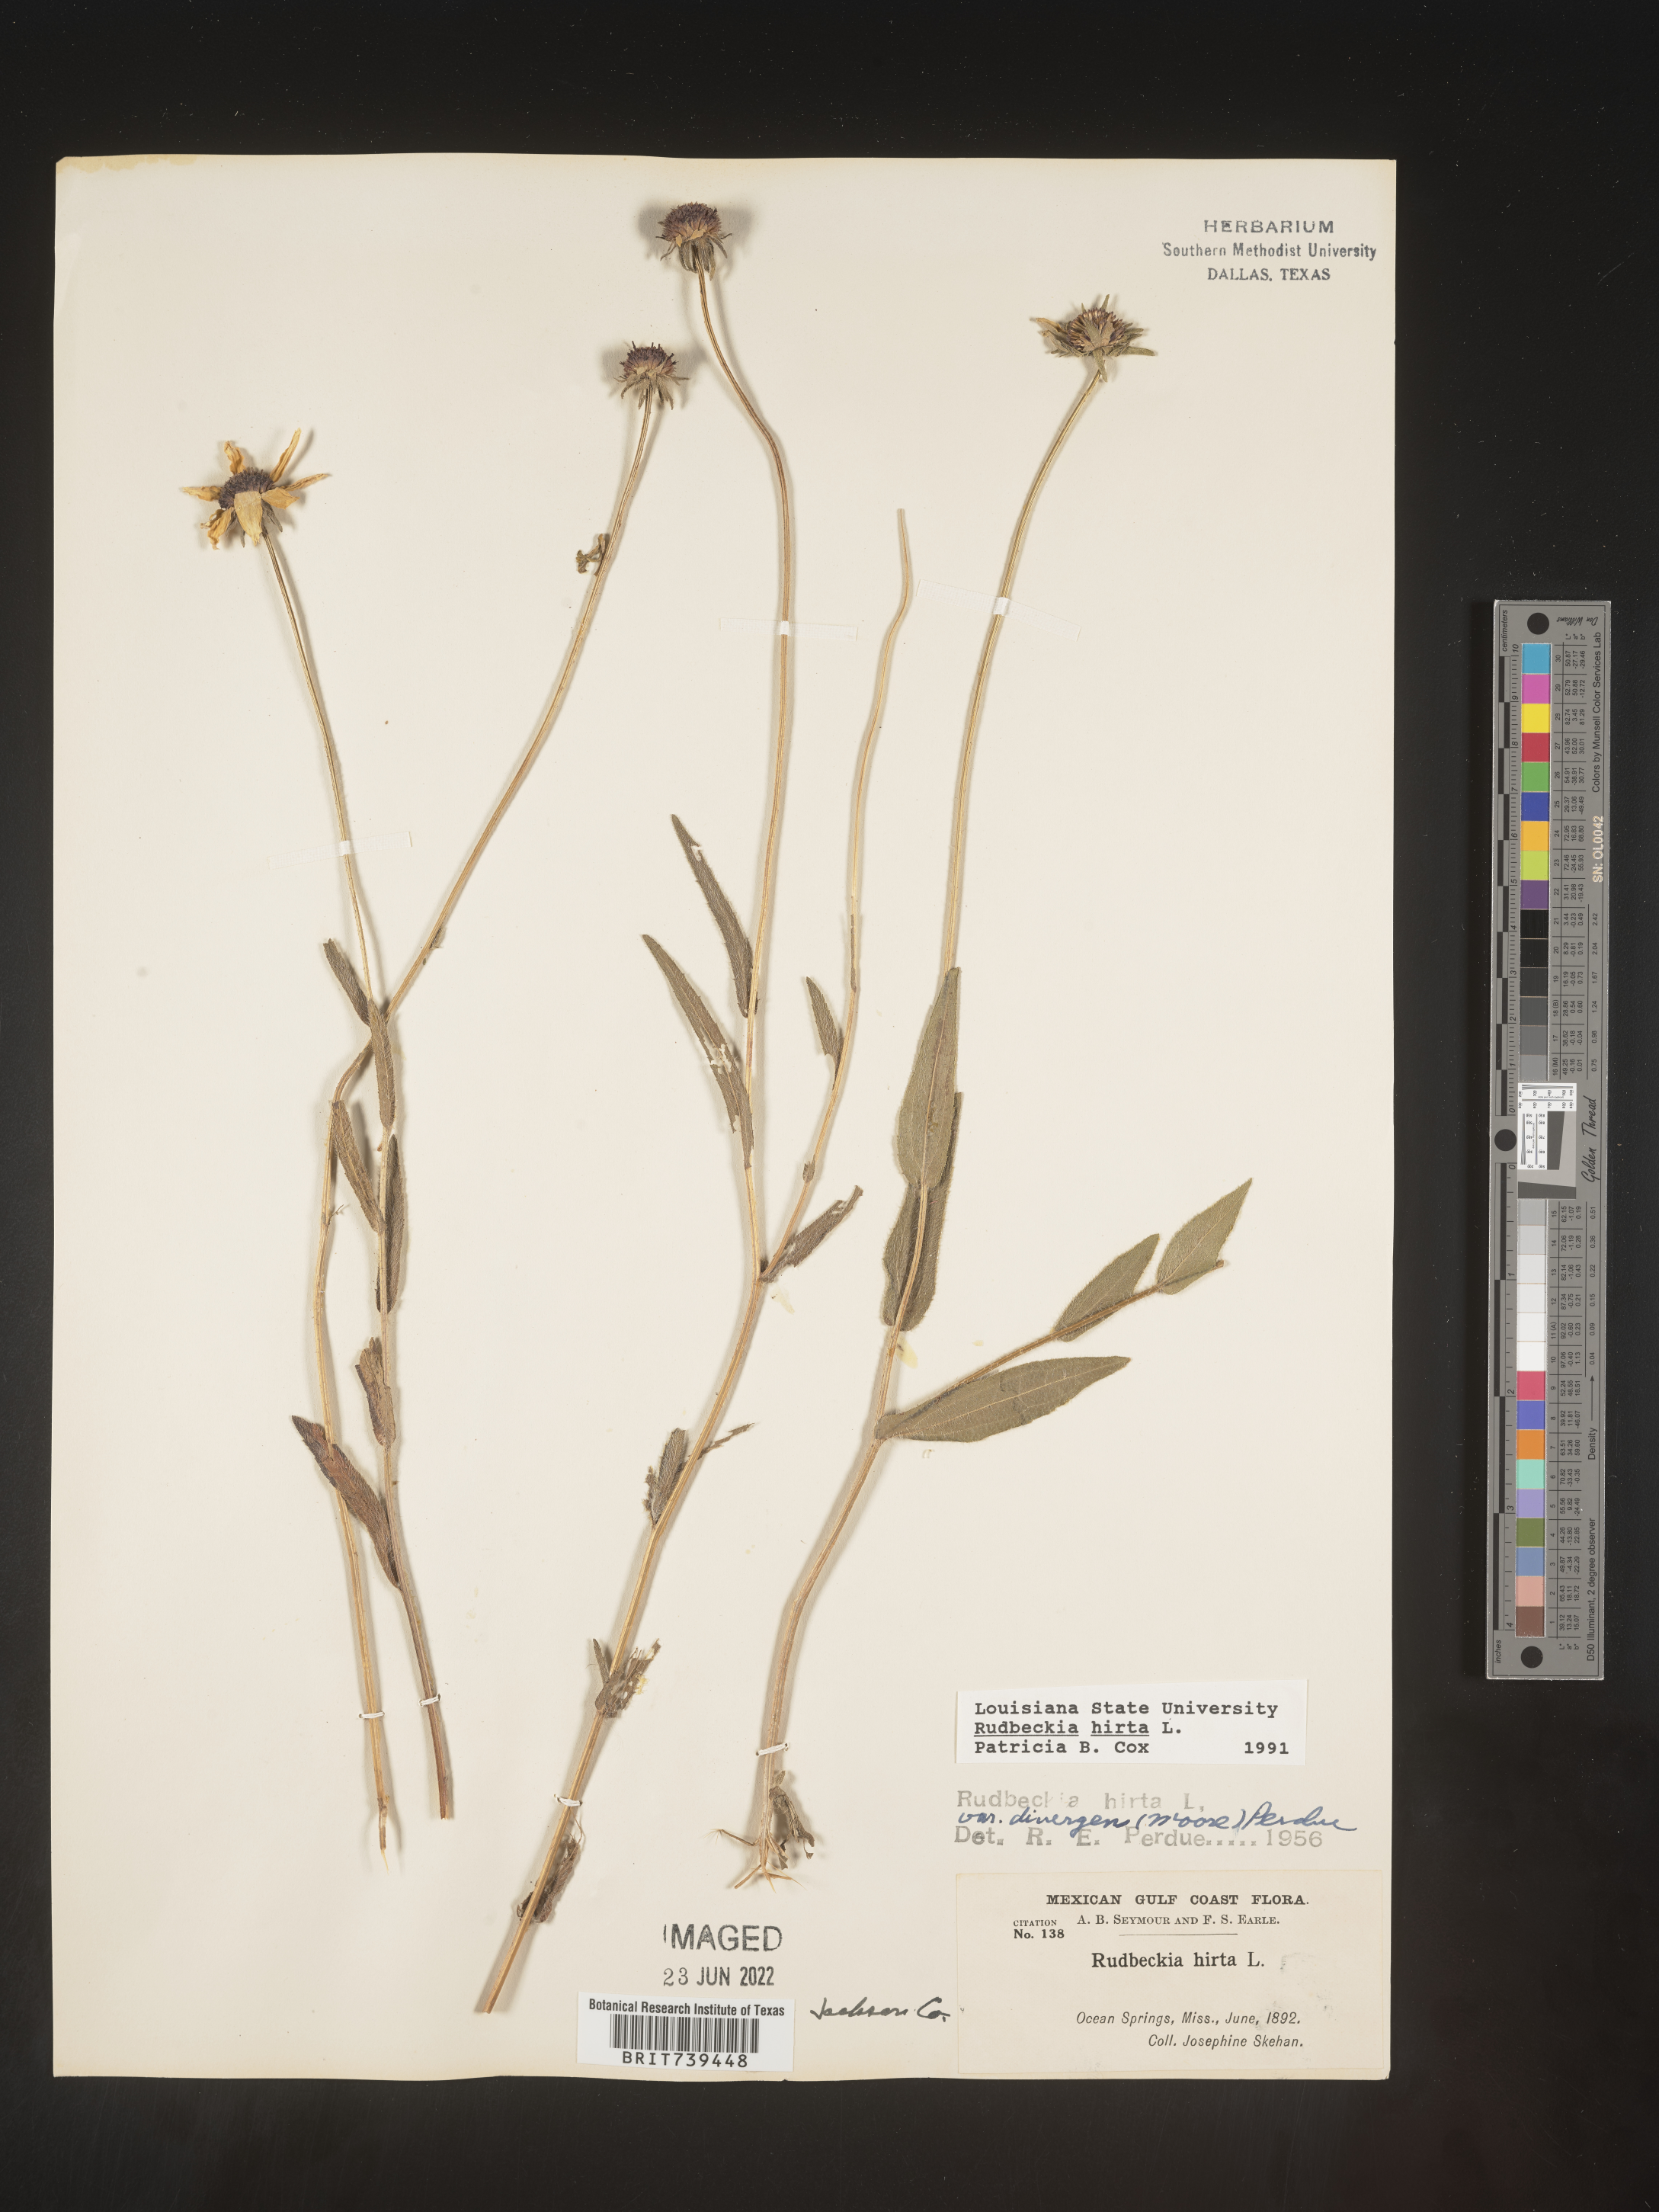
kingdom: Plantae
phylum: Tracheophyta
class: Magnoliopsida
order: Asterales
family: Asteraceae
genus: Rudbeckia
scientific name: Rudbeckia hirta
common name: Black-eyed-susan
